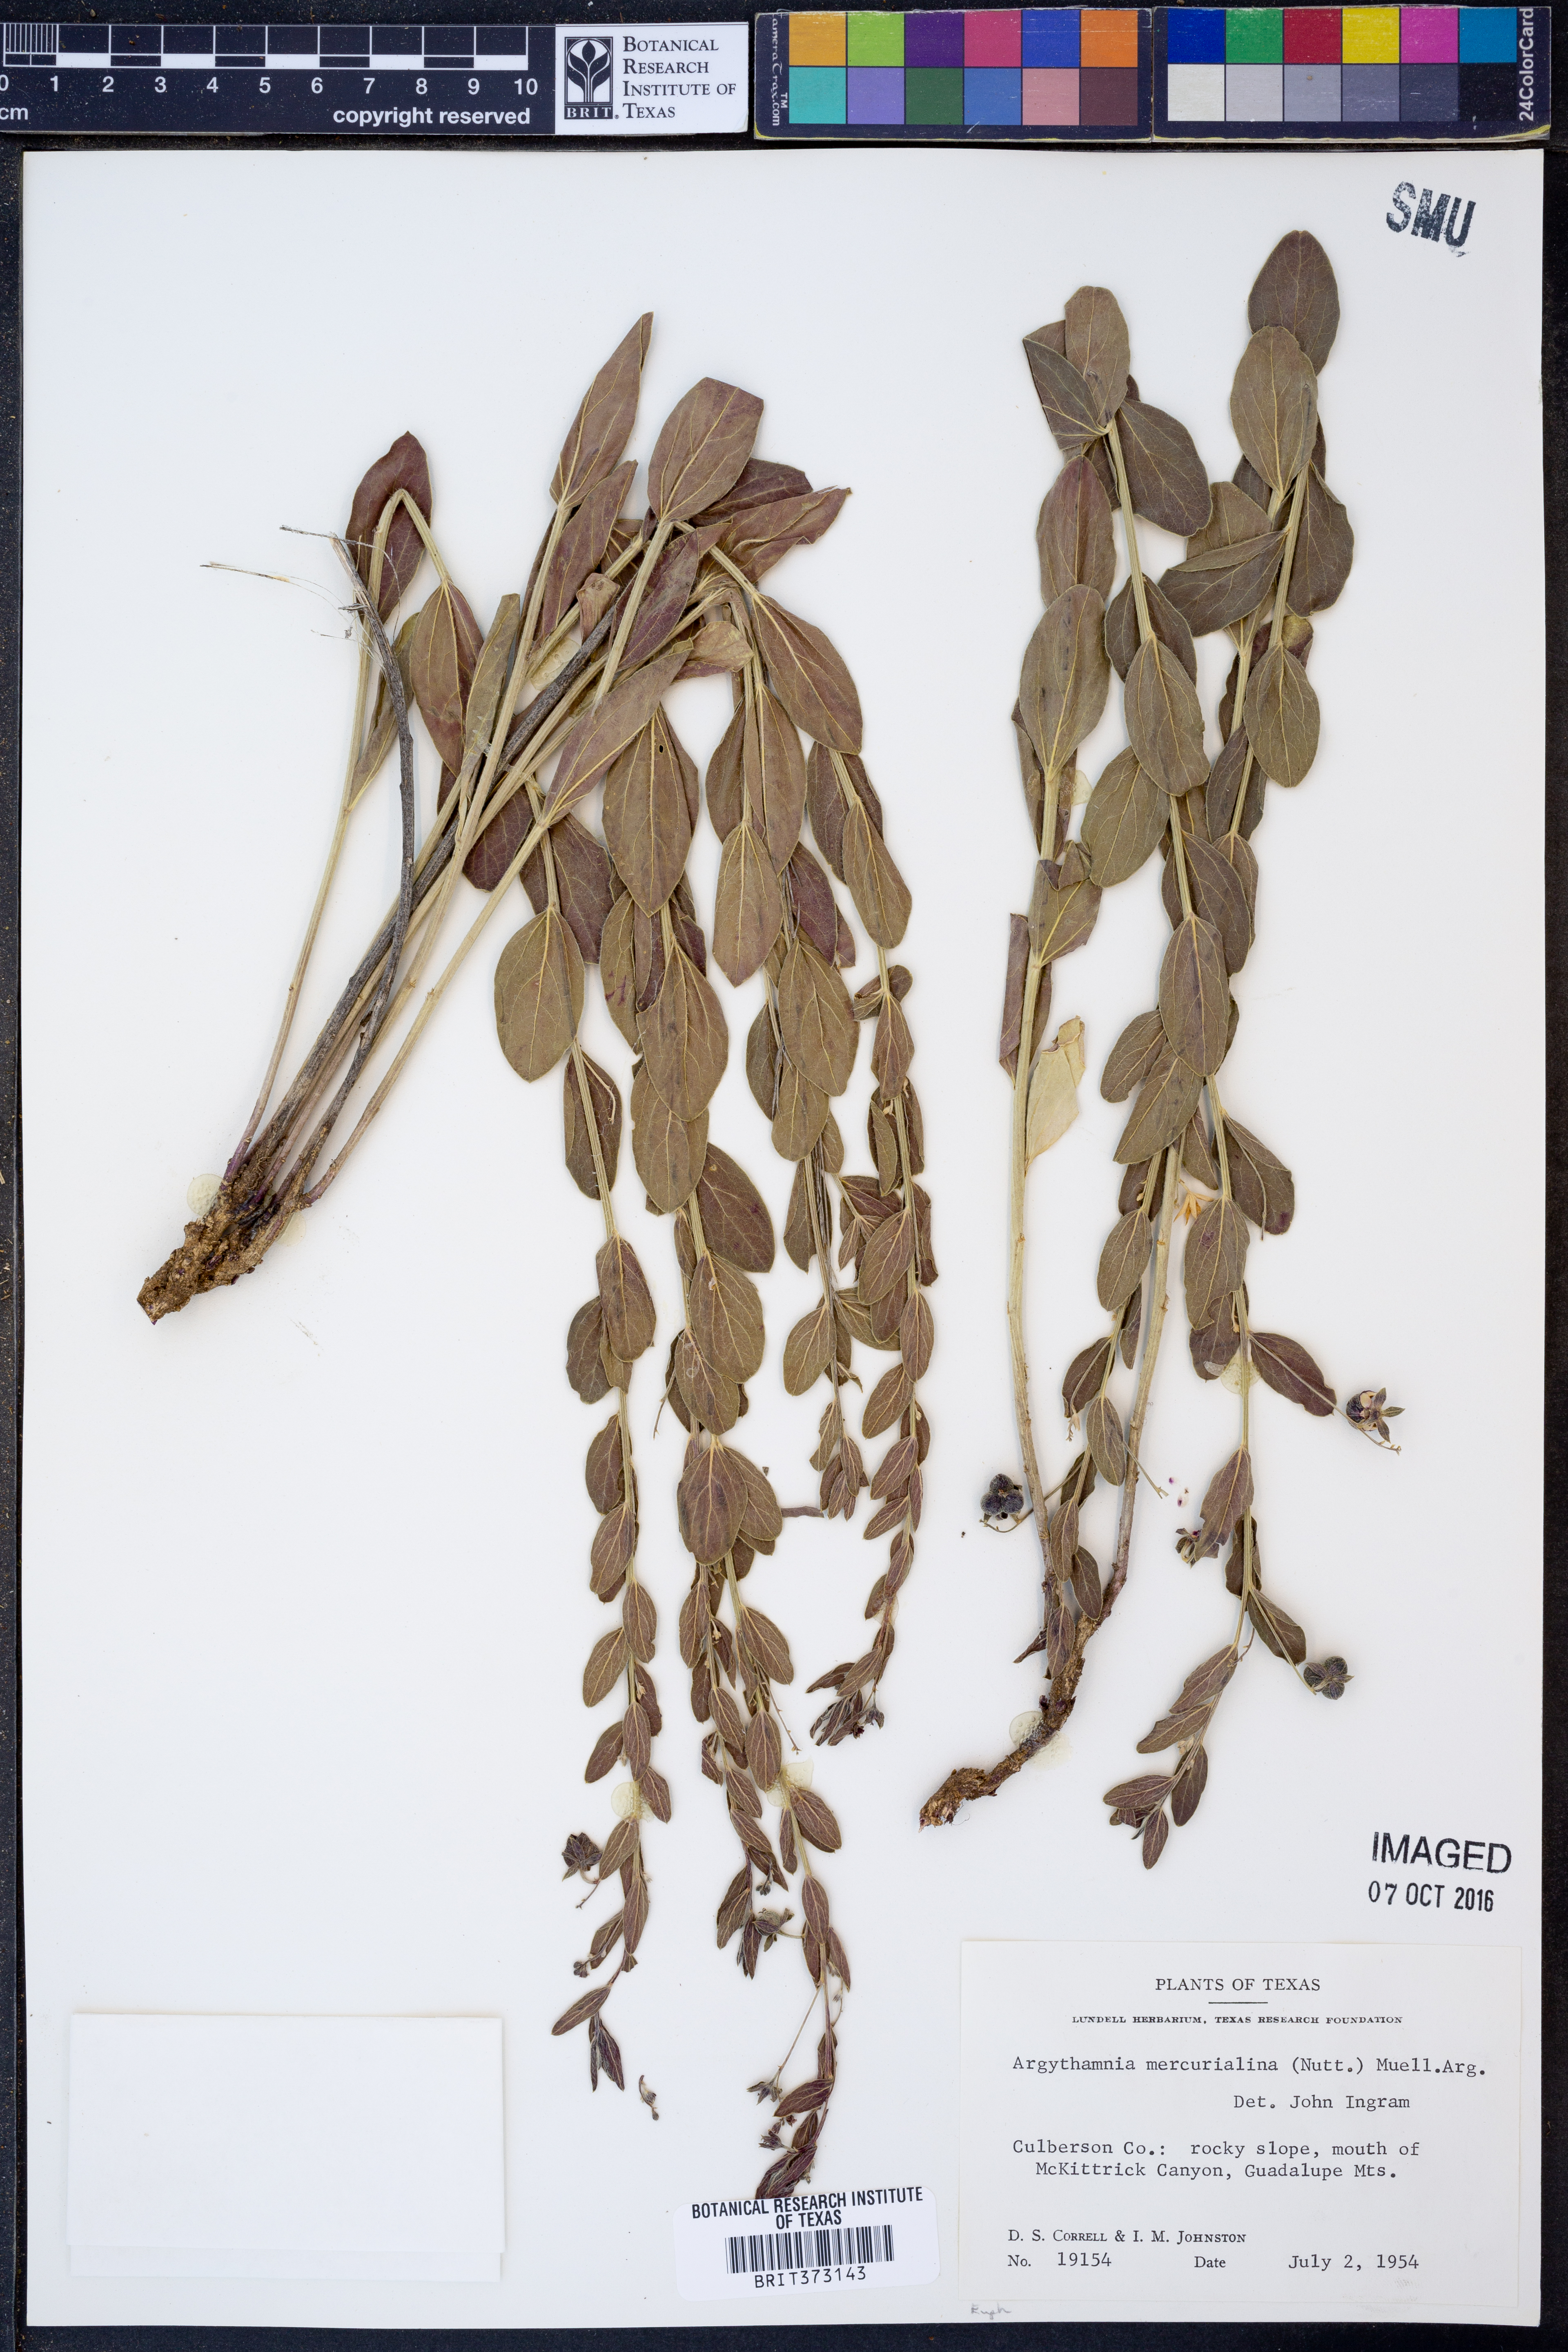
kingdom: Plantae
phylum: Tracheophyta
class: Magnoliopsida
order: Malpighiales
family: Euphorbiaceae
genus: Ditaxis
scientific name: Ditaxis mercurialina
